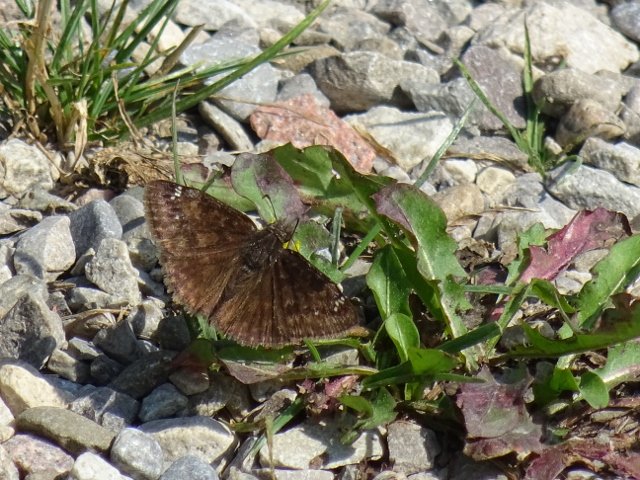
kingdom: Animalia
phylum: Arthropoda
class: Insecta
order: Lepidoptera
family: Hesperiidae
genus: Gesta
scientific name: Gesta
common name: Wild Indigo Duskywing
